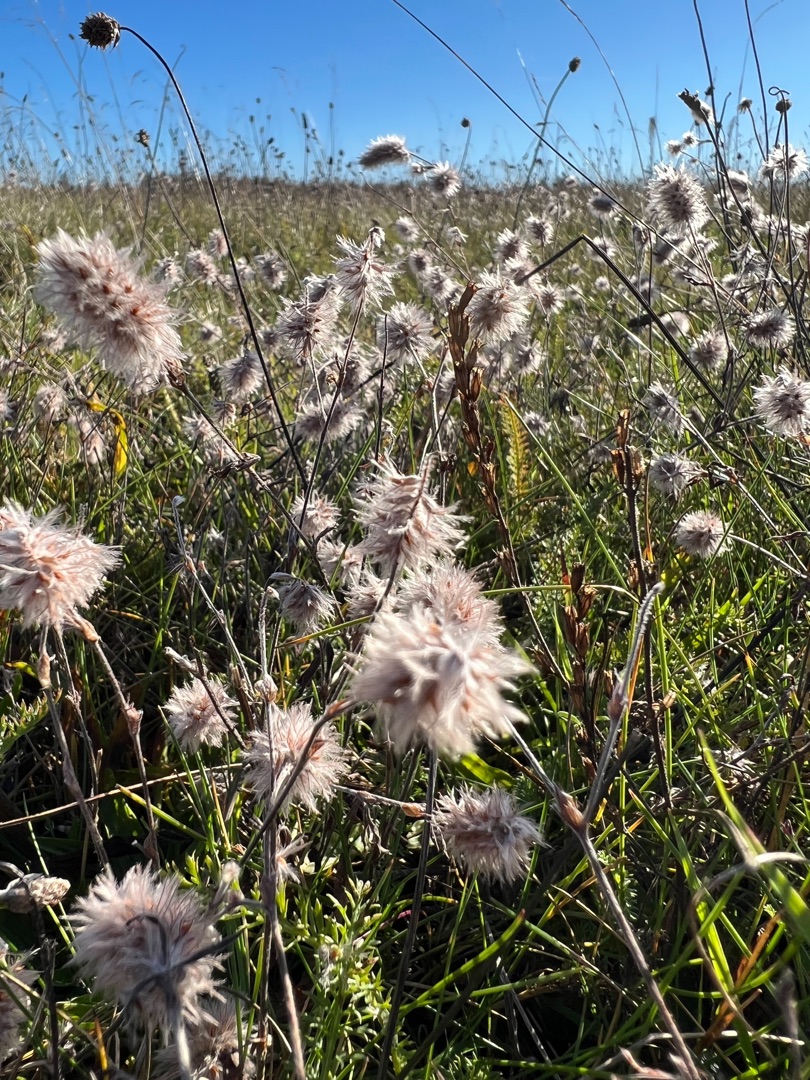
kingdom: Plantae
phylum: Tracheophyta
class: Magnoliopsida
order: Fabales
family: Fabaceae
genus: Trifolium
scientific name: Trifolium arvense
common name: Hare-kløver
